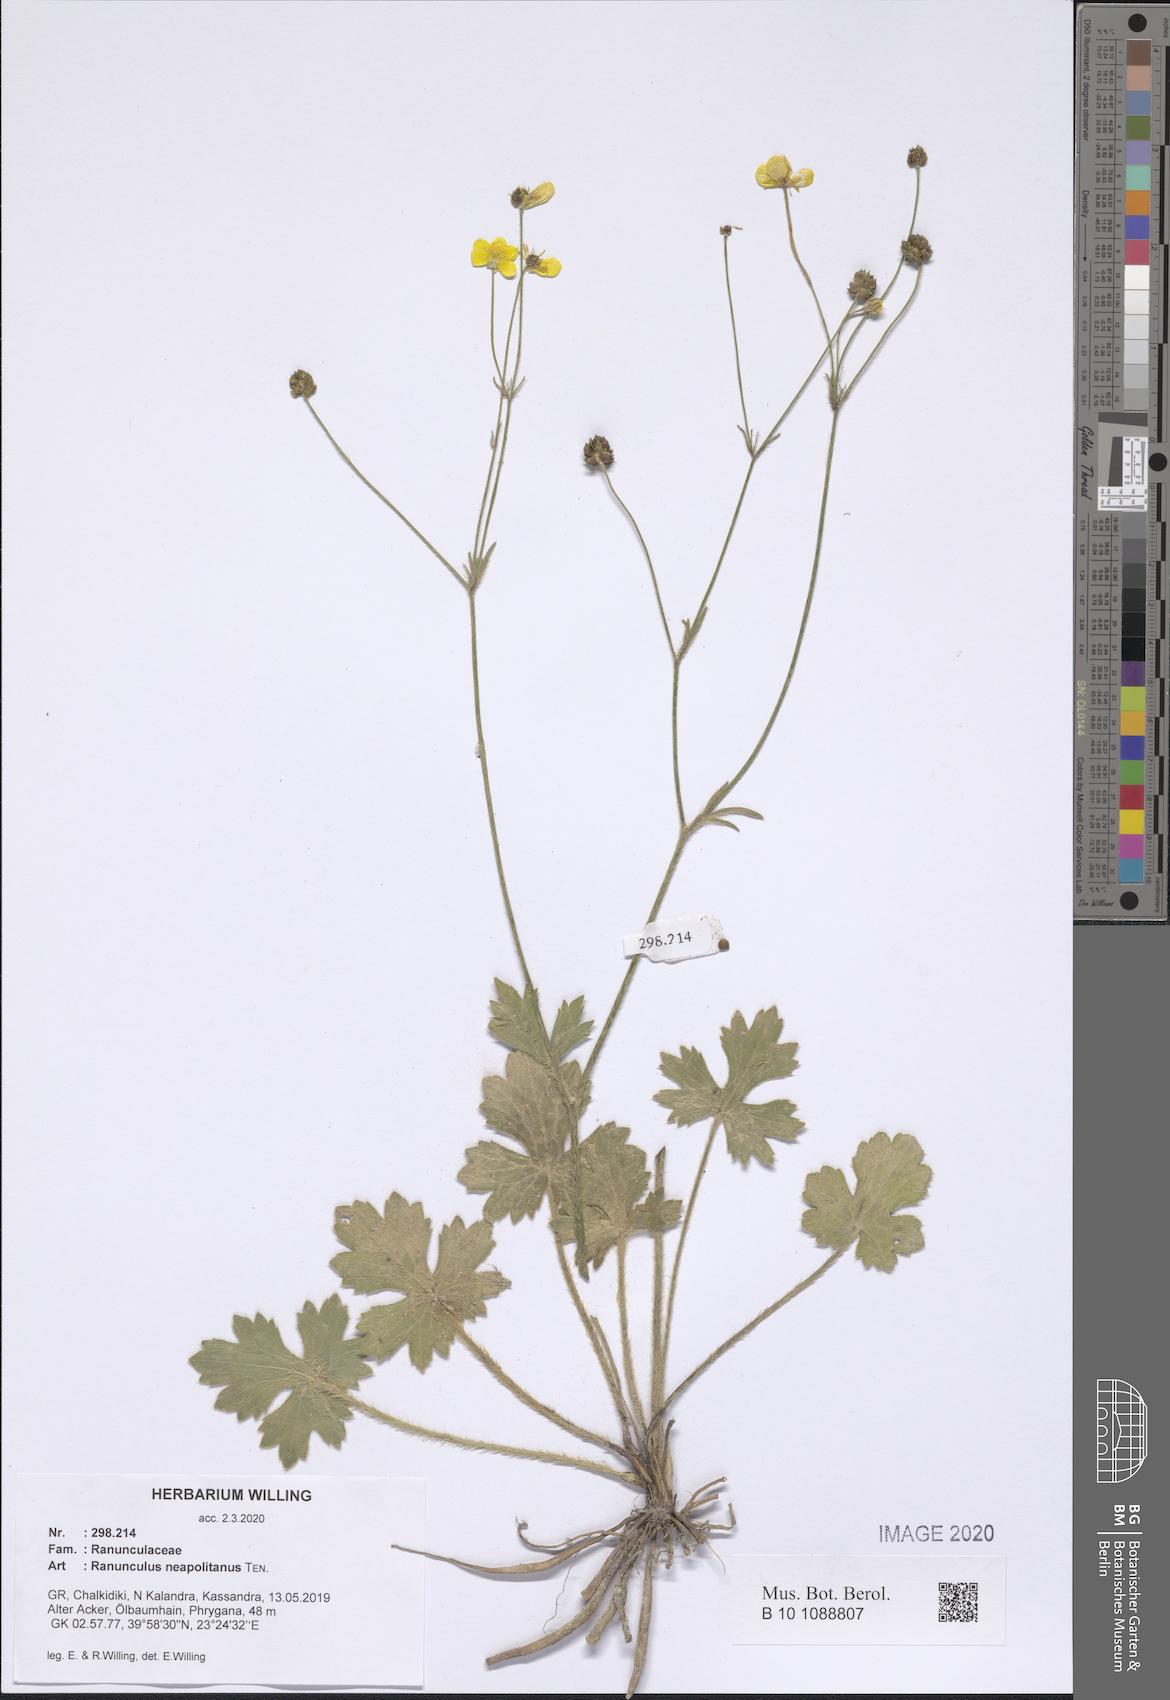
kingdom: Plantae
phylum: Tracheophyta
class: Magnoliopsida
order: Ranunculales
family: Ranunculaceae
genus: Ranunculus
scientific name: Ranunculus neapolitanus
